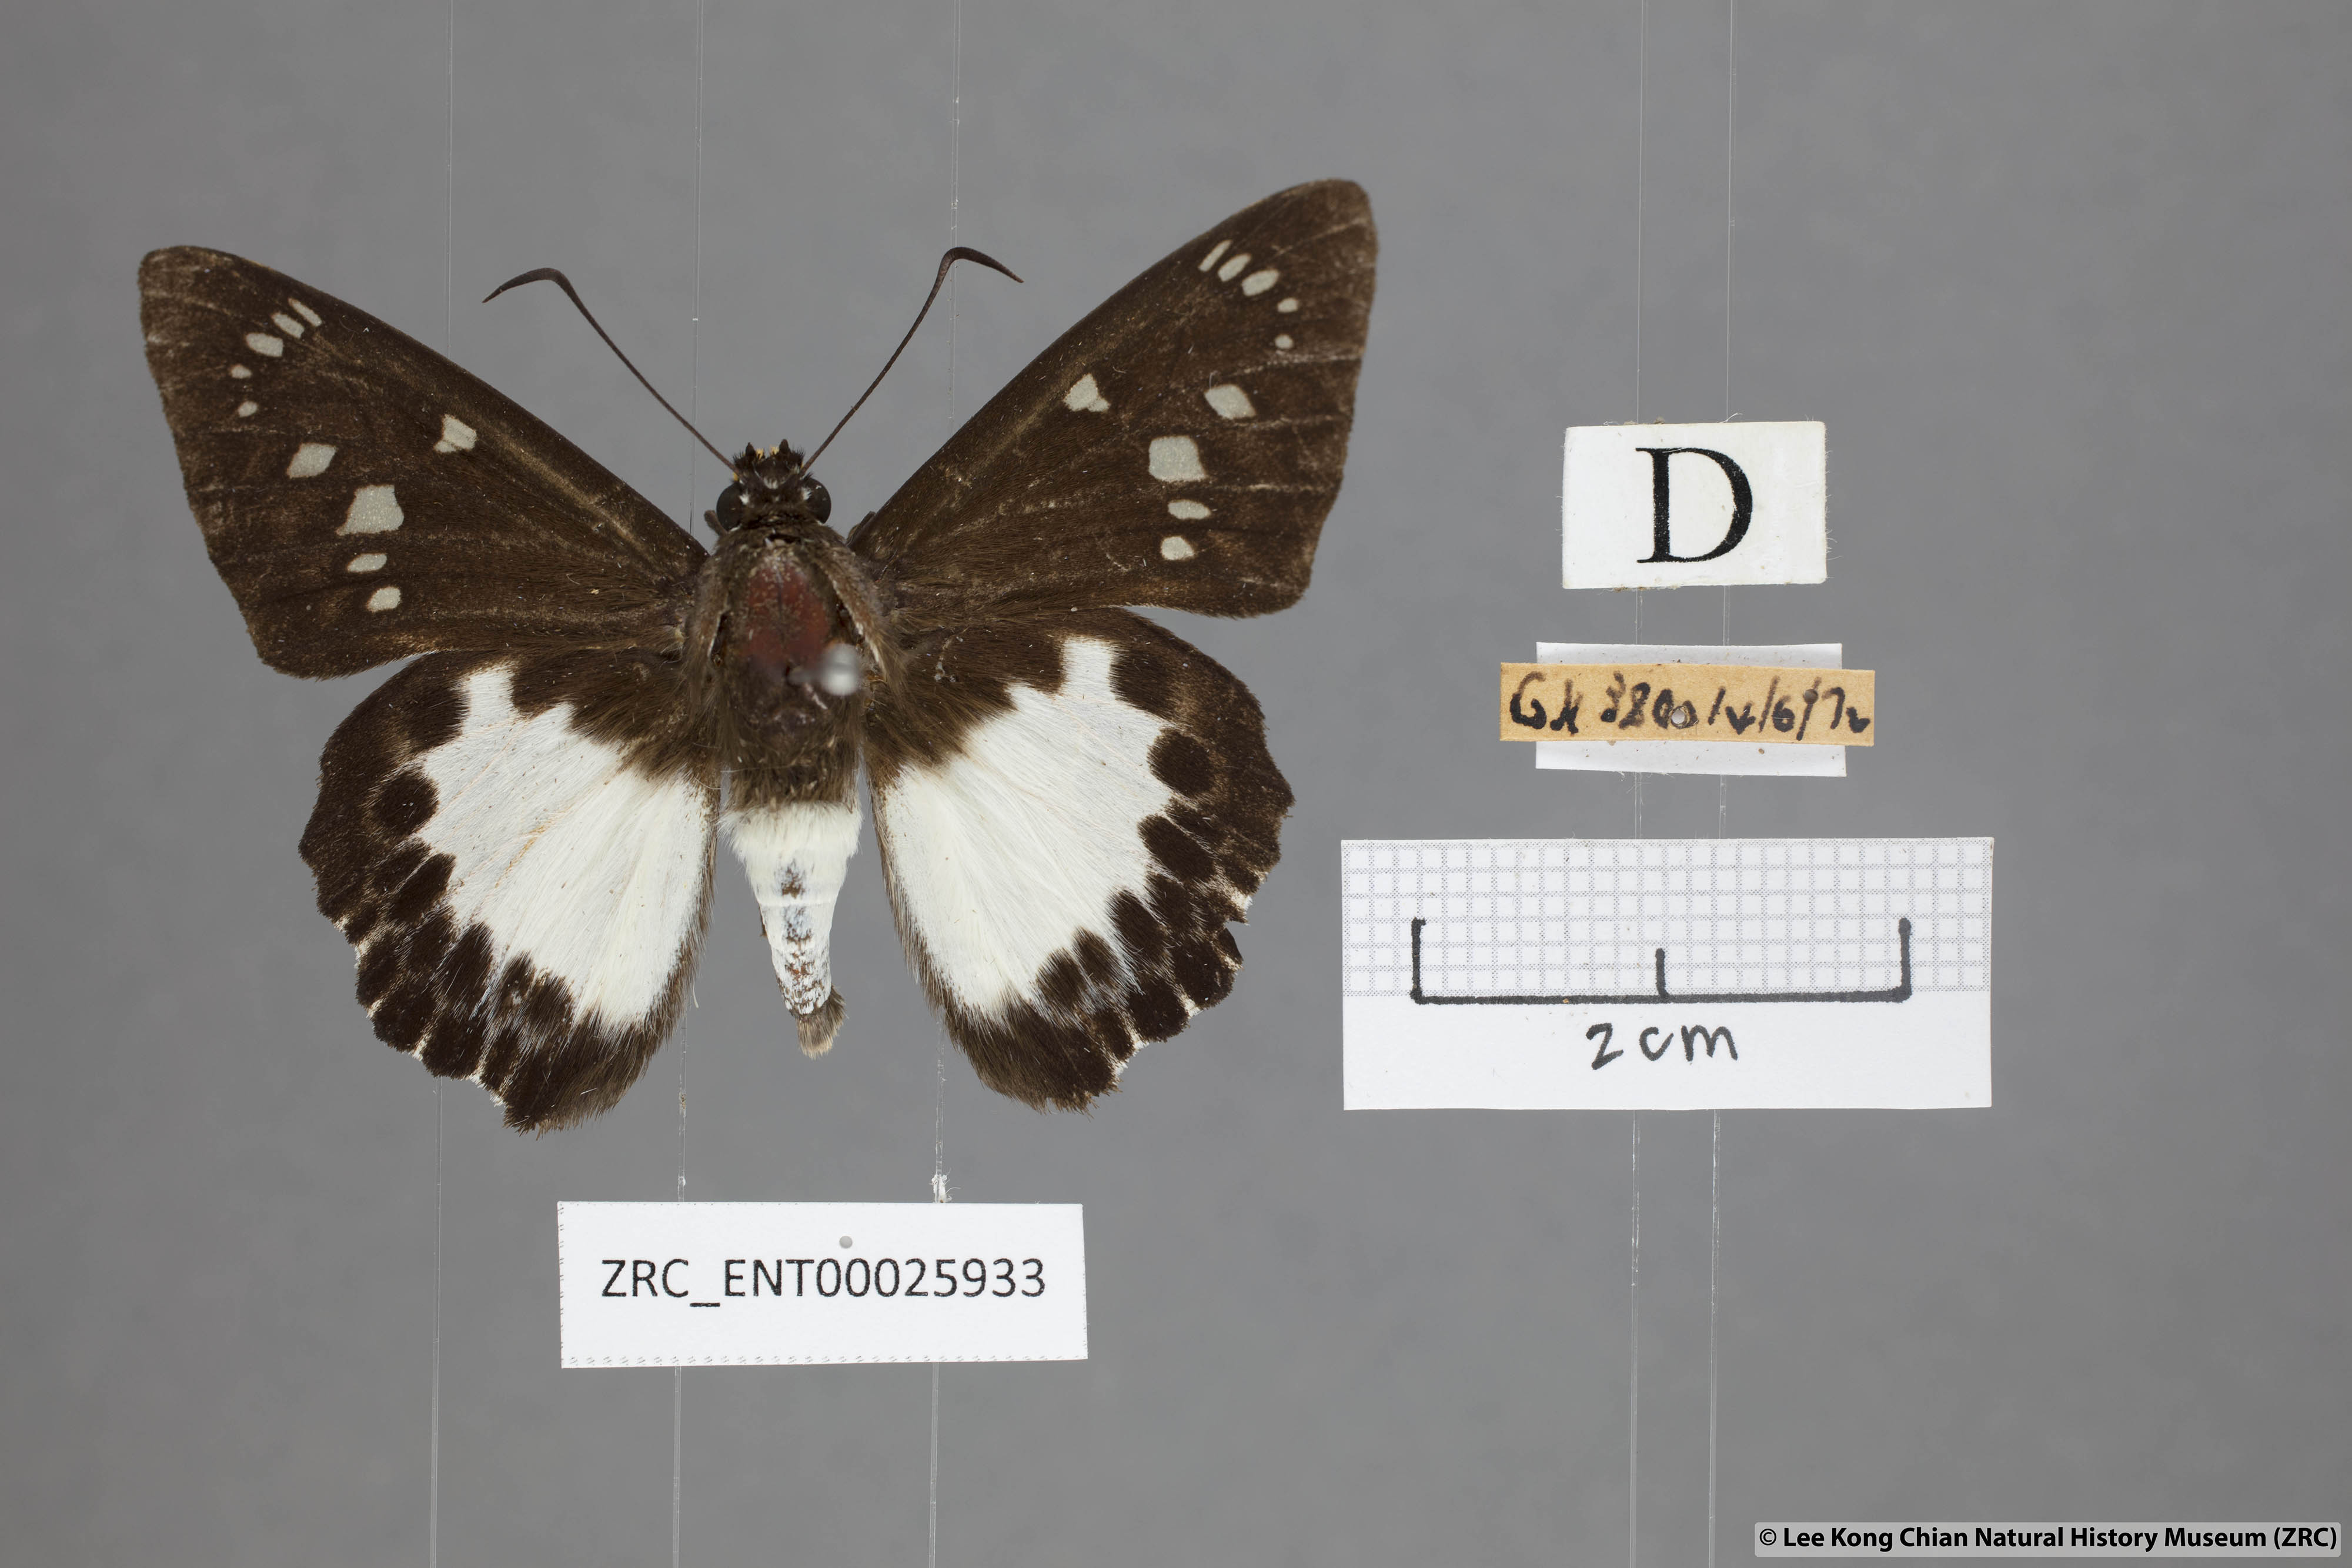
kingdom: Animalia
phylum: Arthropoda
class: Insecta
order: Lepidoptera
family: Hesperiidae
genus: Satarupa
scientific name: Satarupa gopala
